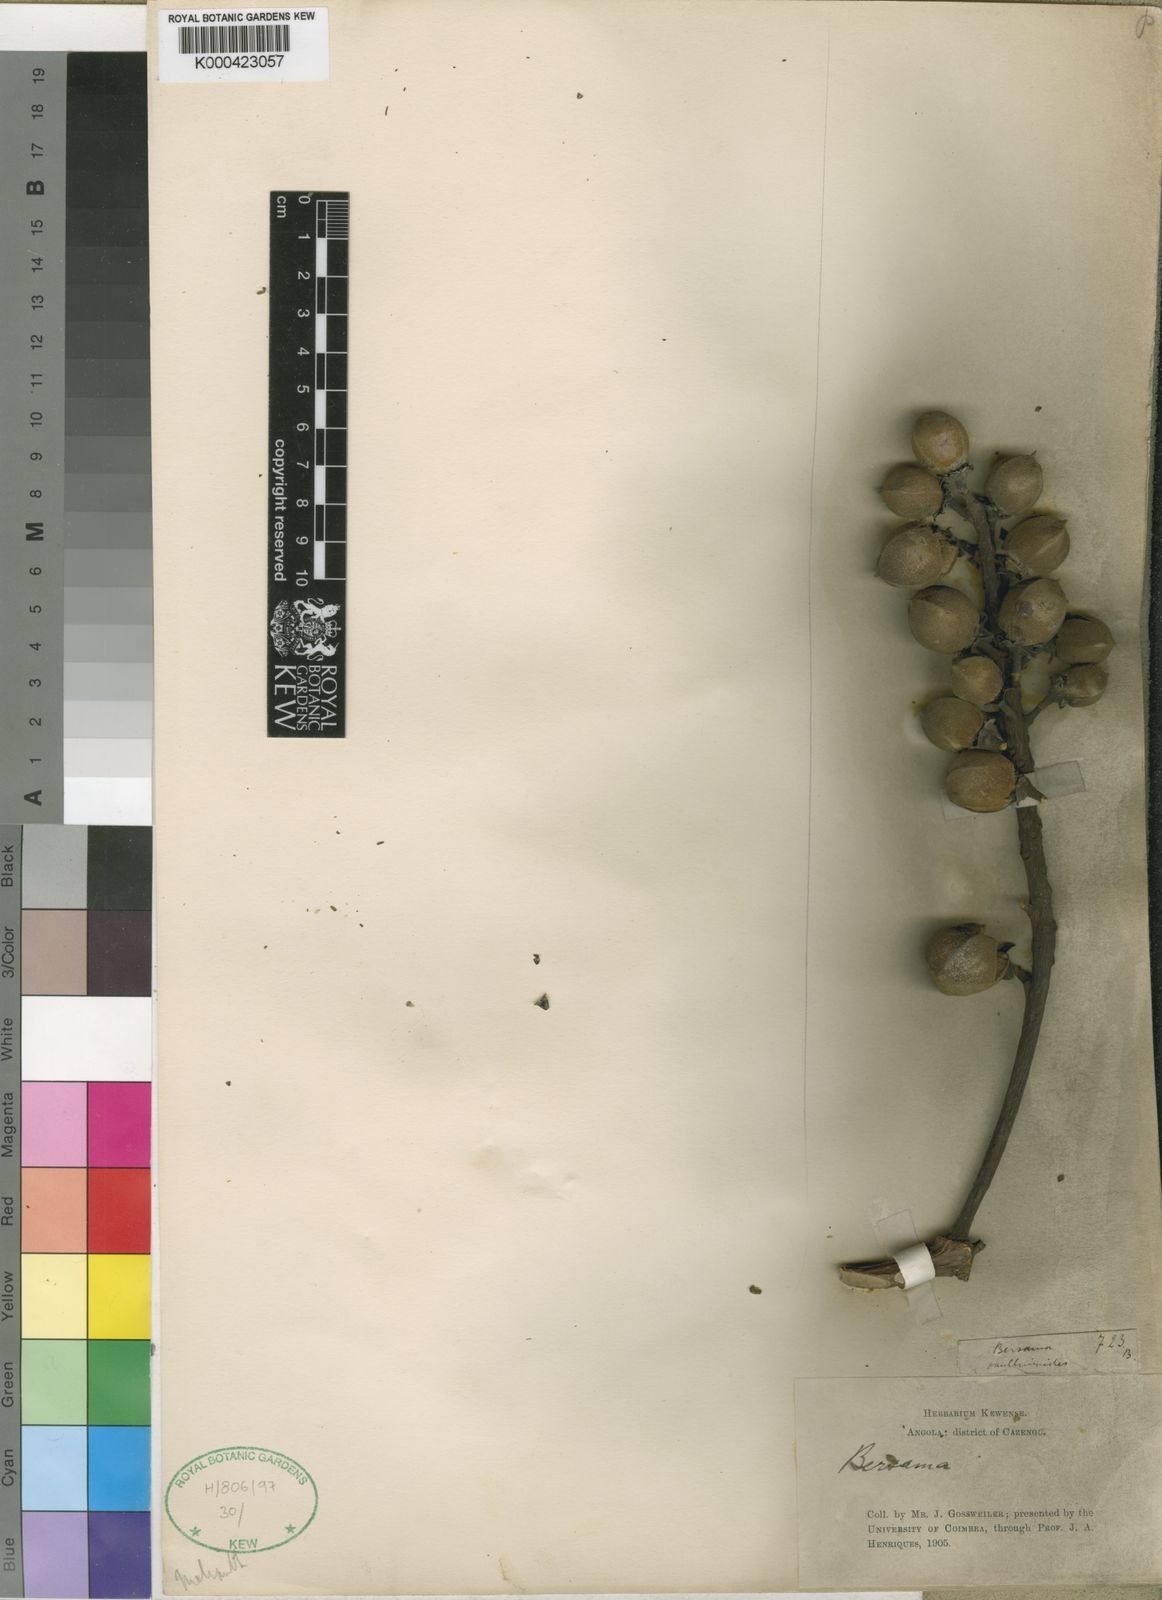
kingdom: Plantae
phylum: Tracheophyta
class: Magnoliopsida
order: Geraniales
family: Melianthaceae
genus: Bersama
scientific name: Bersama acutidens
